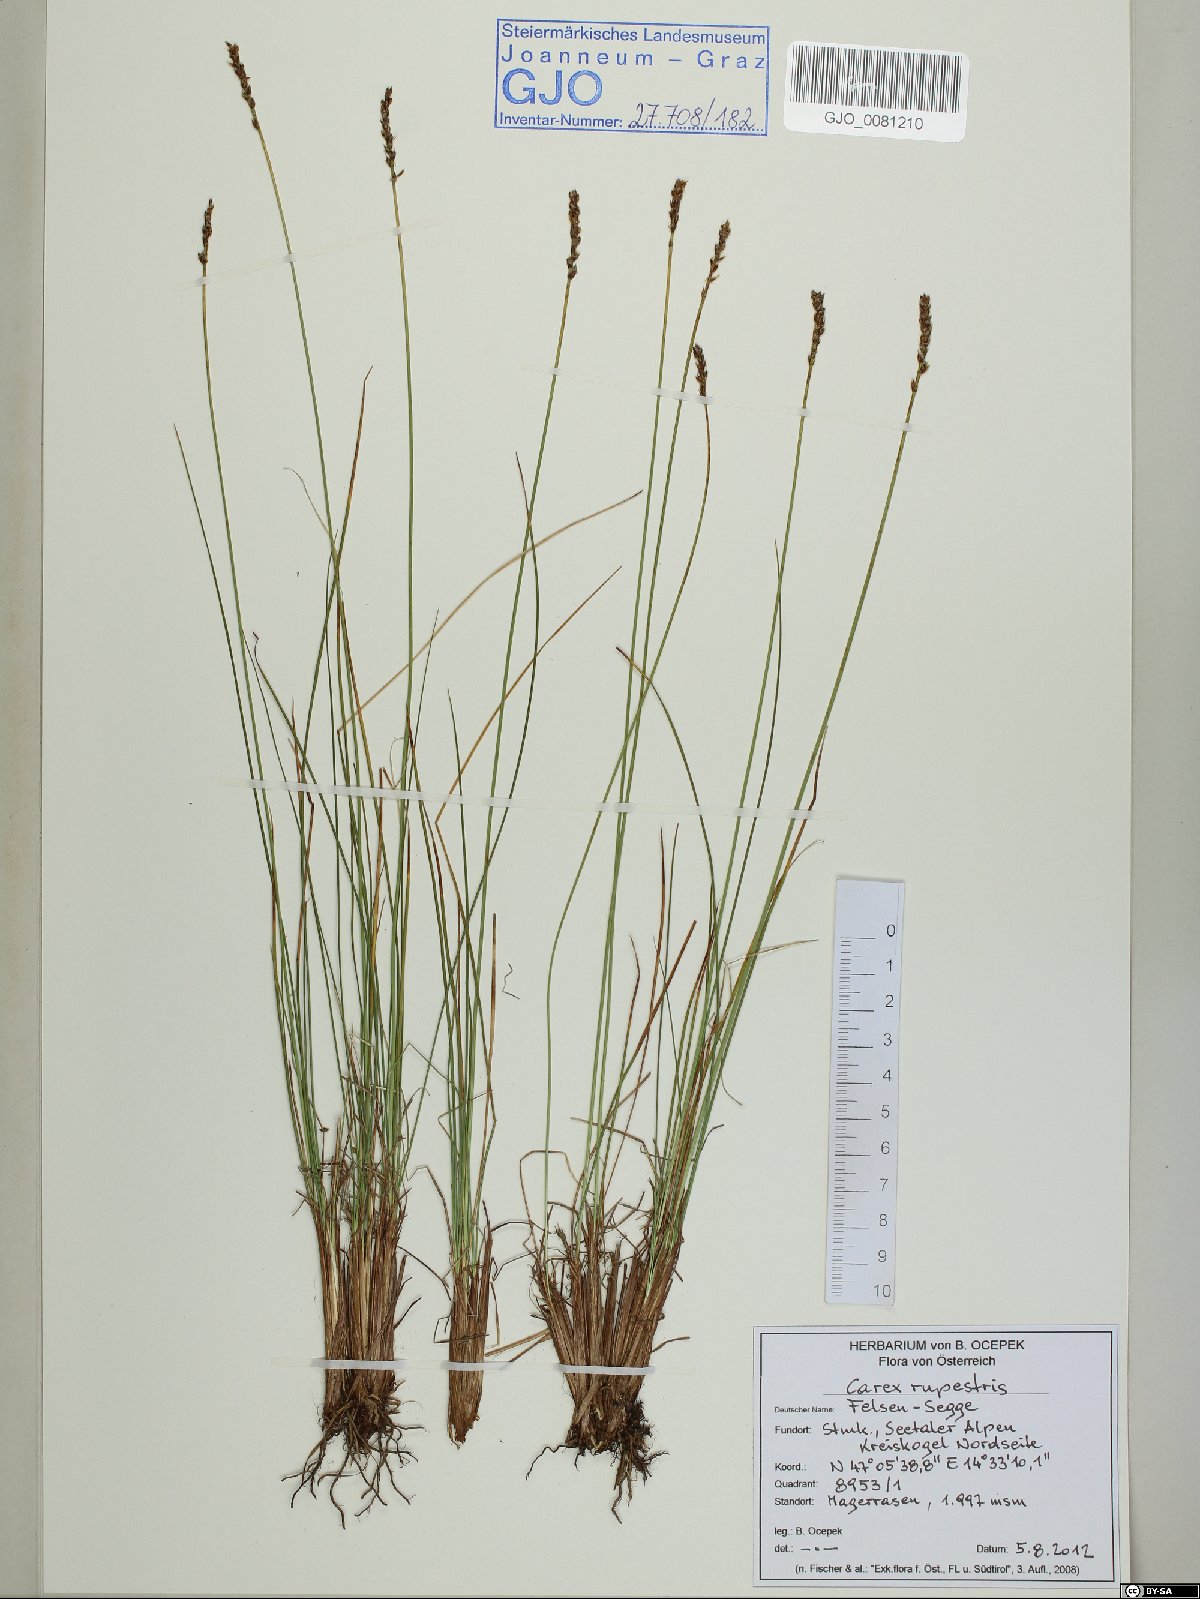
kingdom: Plantae
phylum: Tracheophyta
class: Liliopsida
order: Poales
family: Cyperaceae
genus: Carex
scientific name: Carex myosuroides
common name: Bellard's bog sedge
